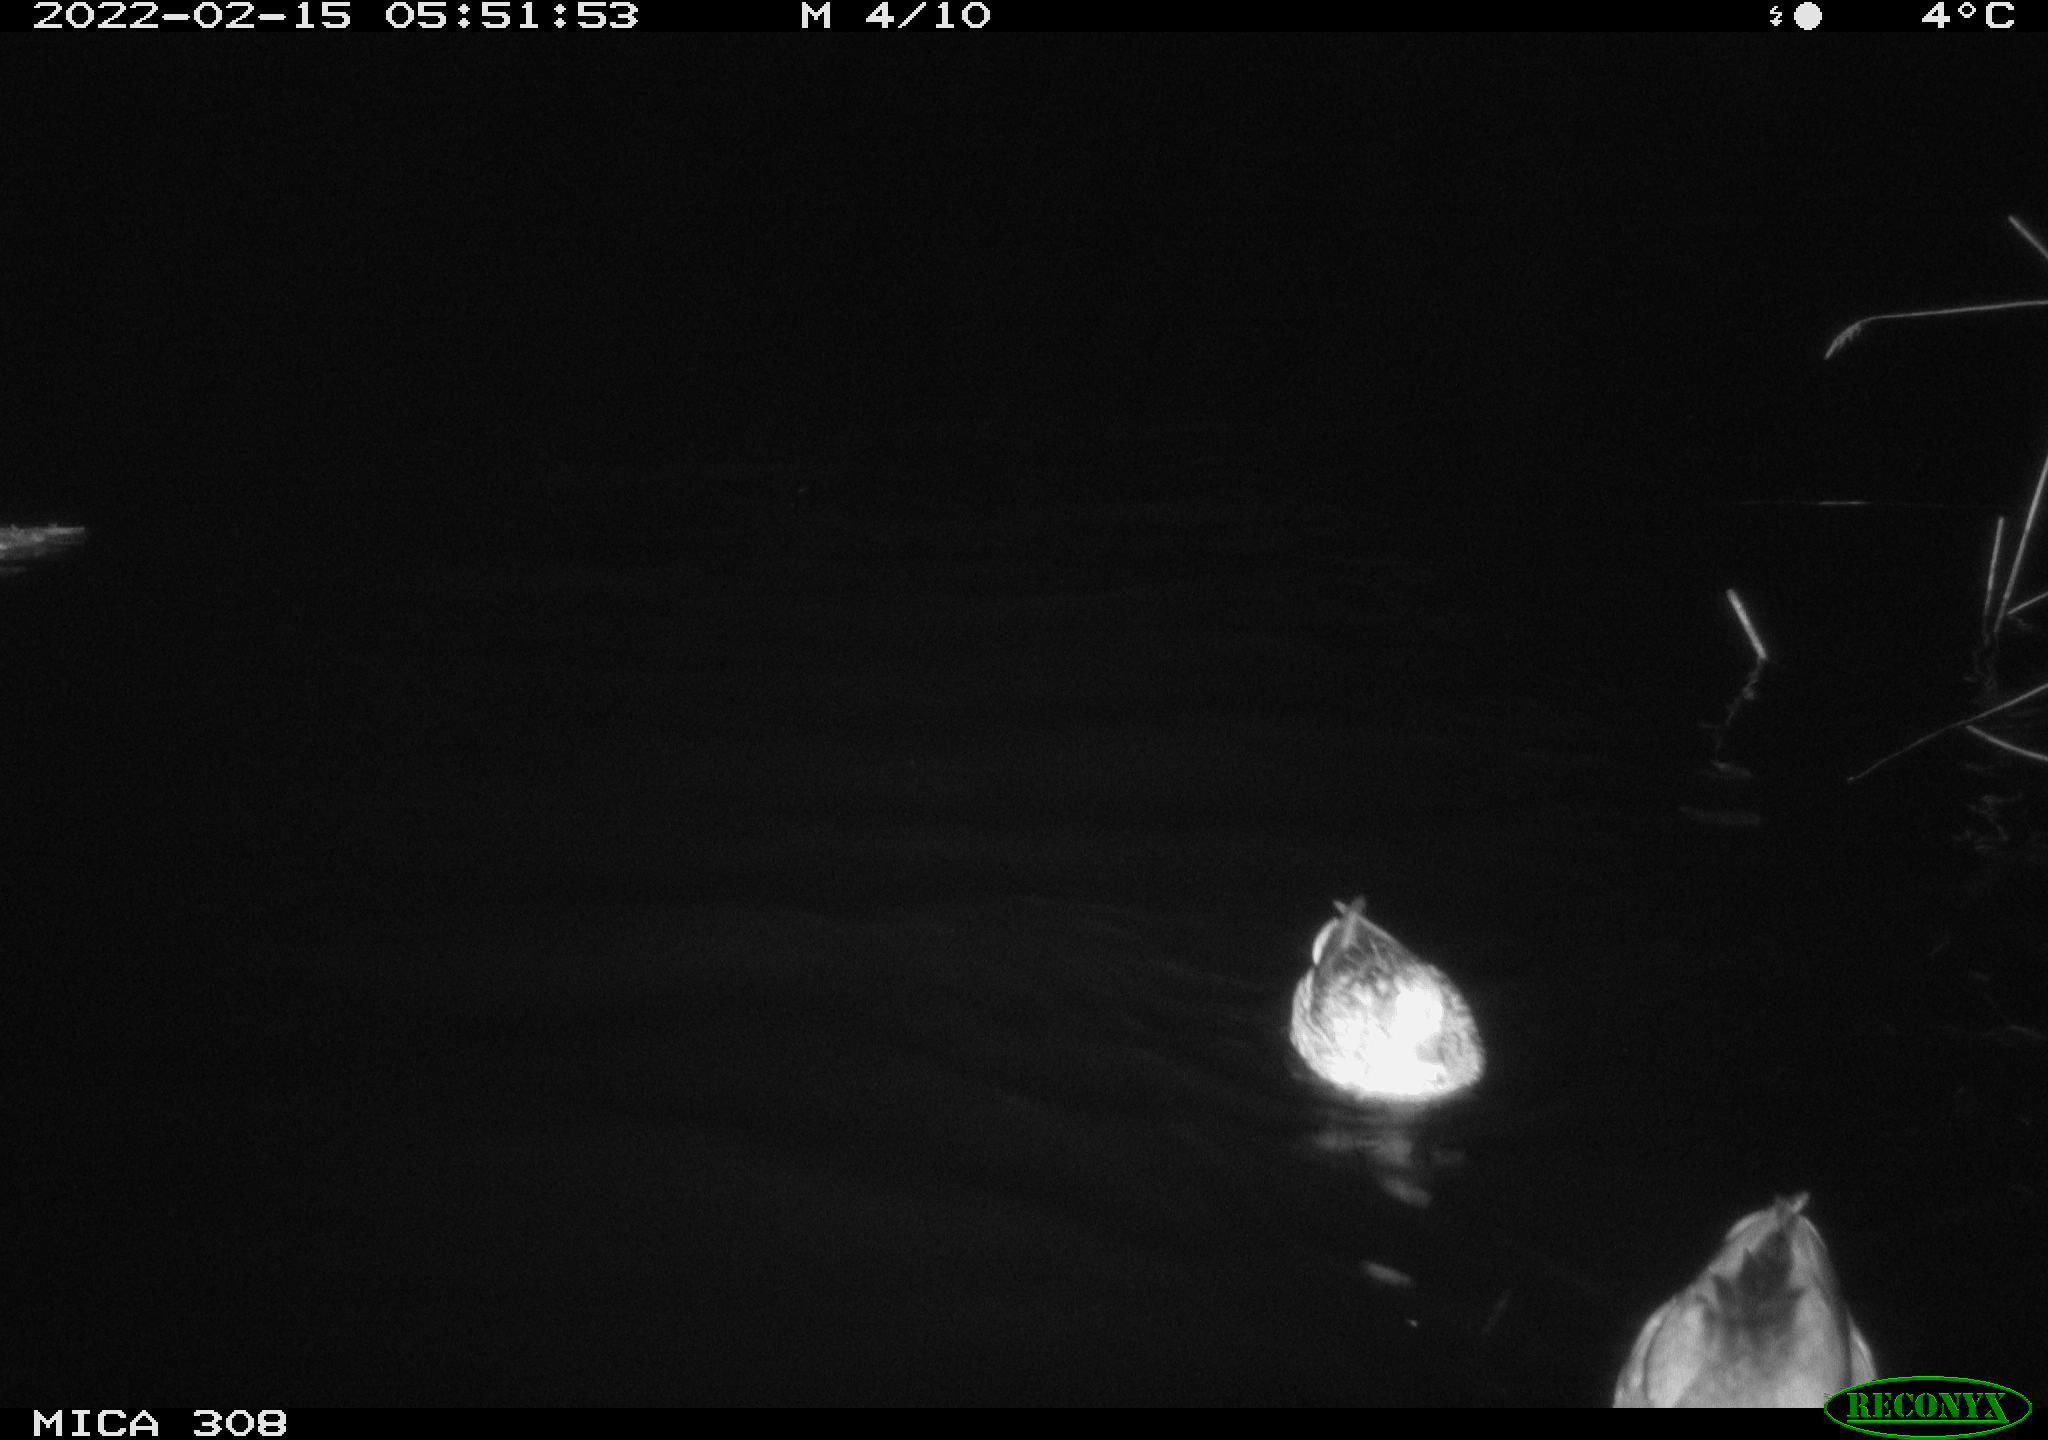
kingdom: Animalia
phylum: Chordata
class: Aves
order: Anseriformes
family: Anatidae
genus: Mareca
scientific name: Mareca strepera
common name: Gadwall
